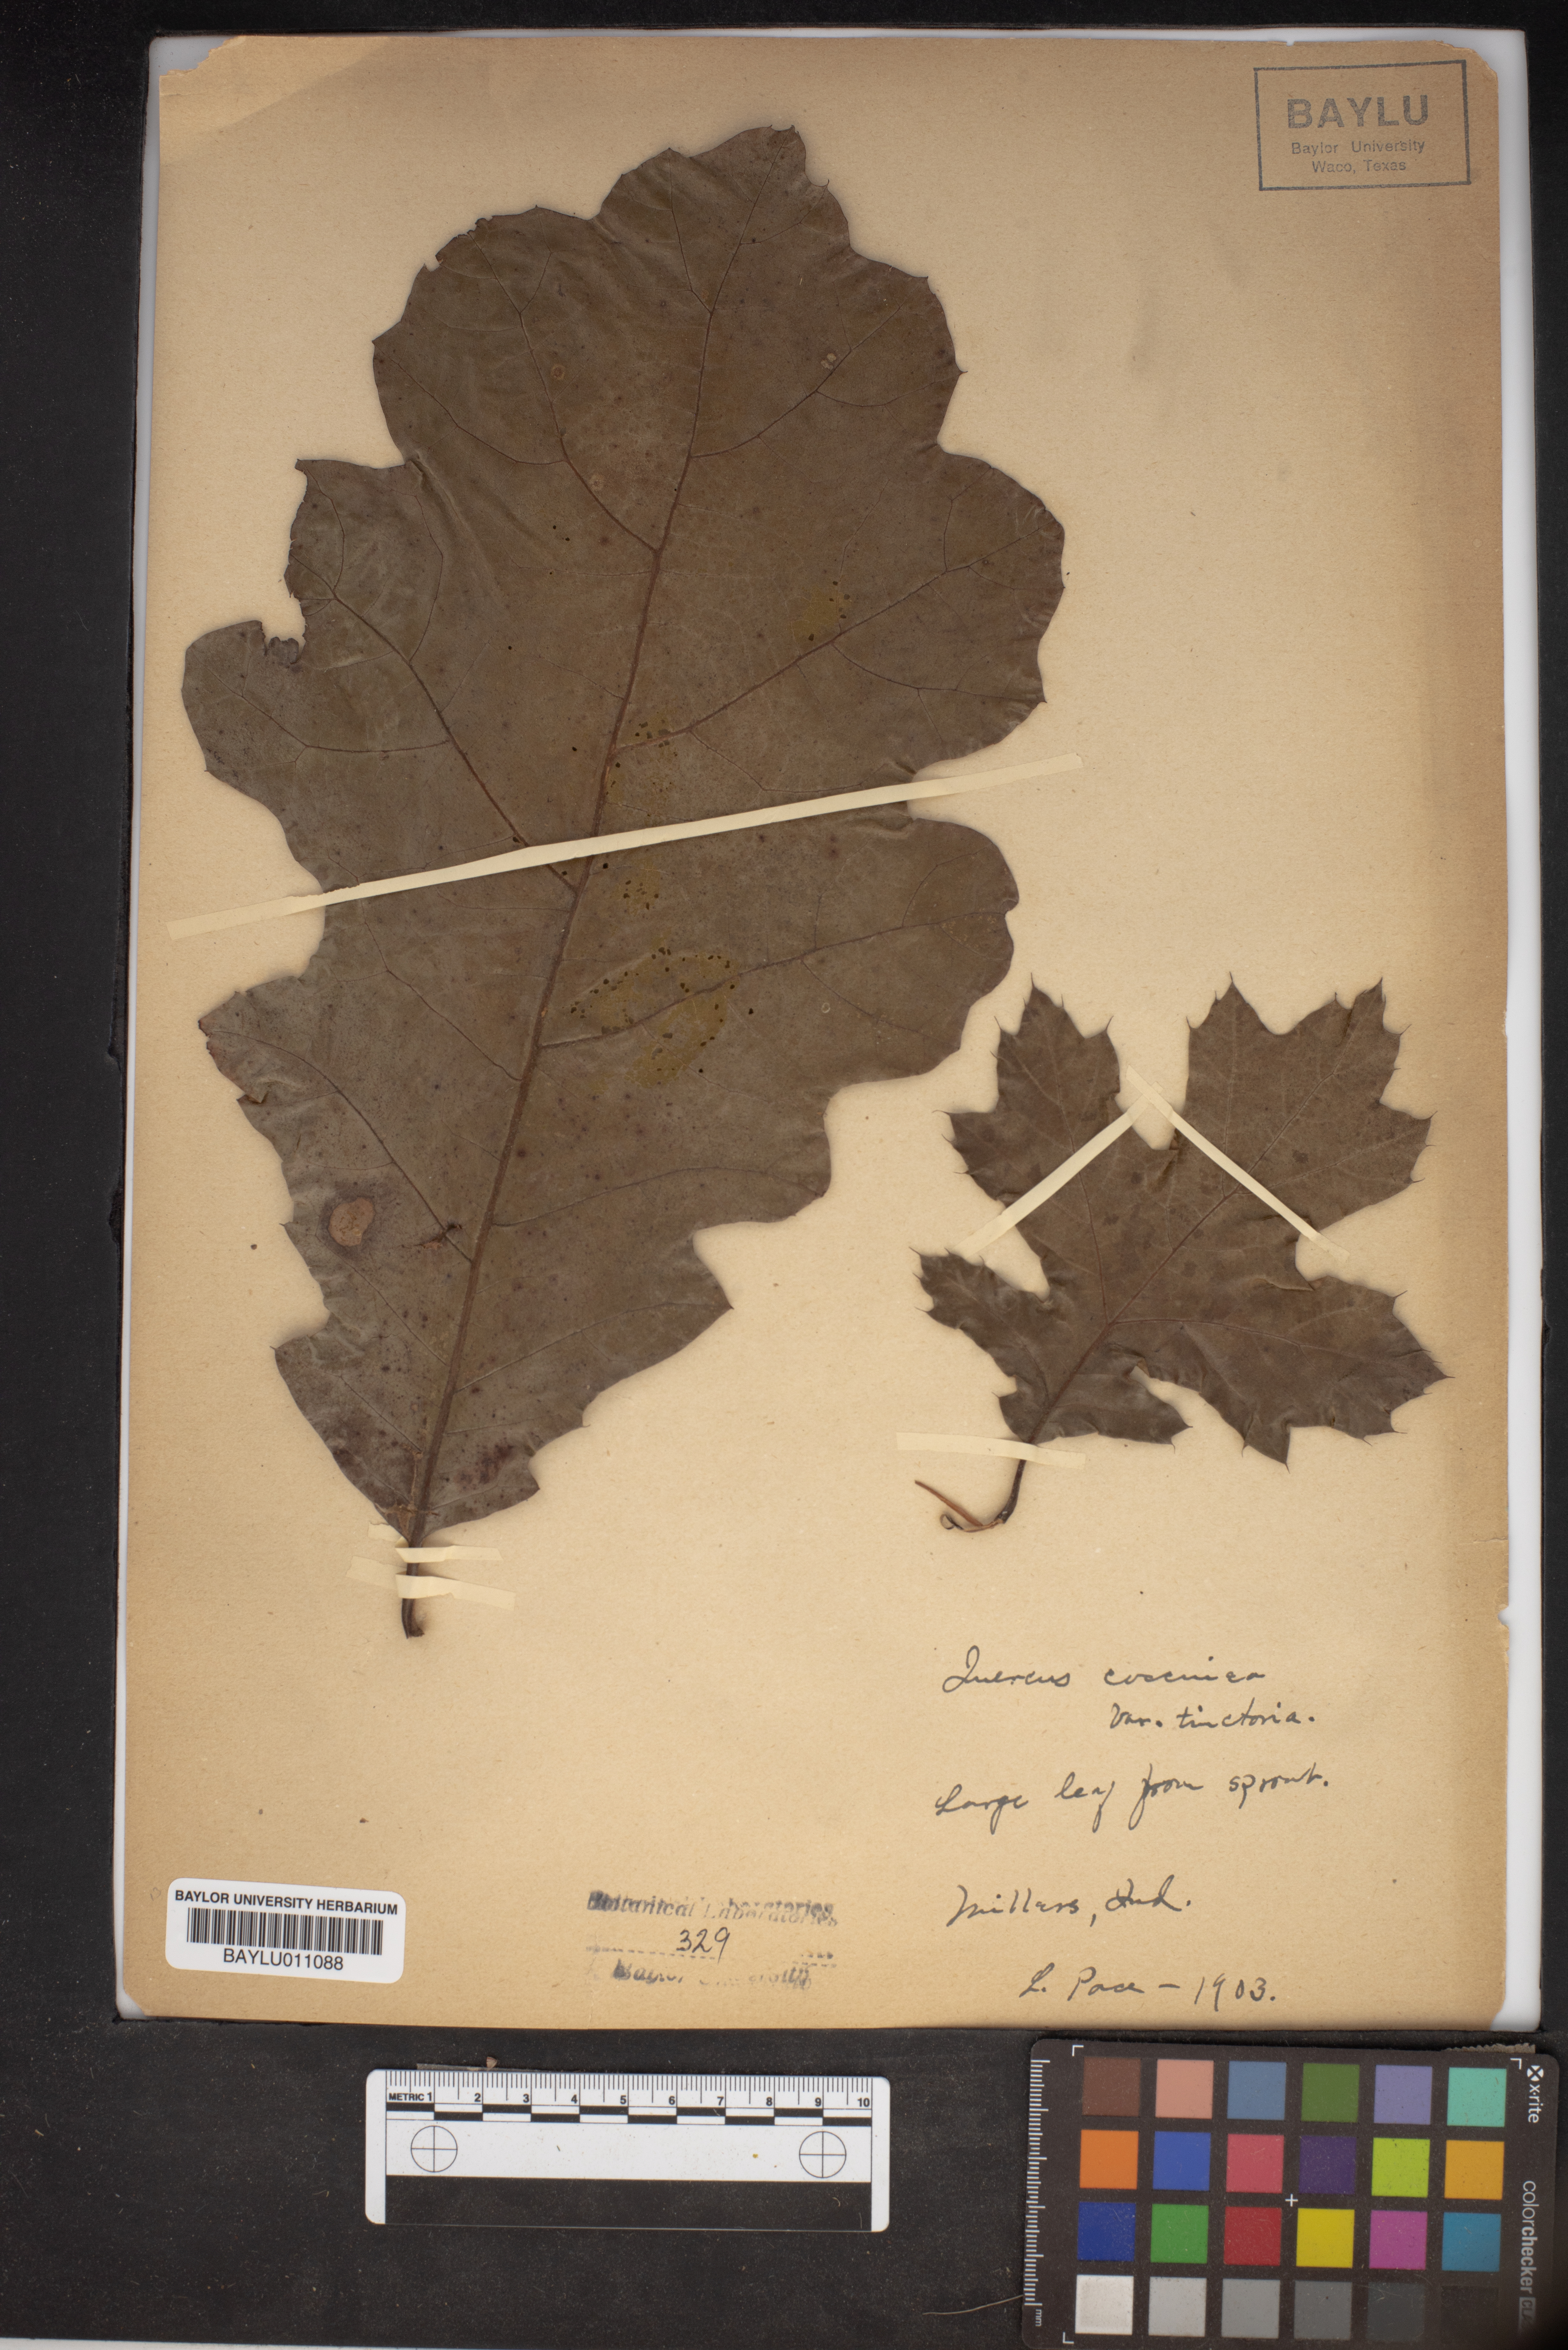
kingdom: Plantae
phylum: Tracheophyta
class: Magnoliopsida
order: Fagales
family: Fagaceae
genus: Quercus
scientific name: Quercus velutina
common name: Black oak
